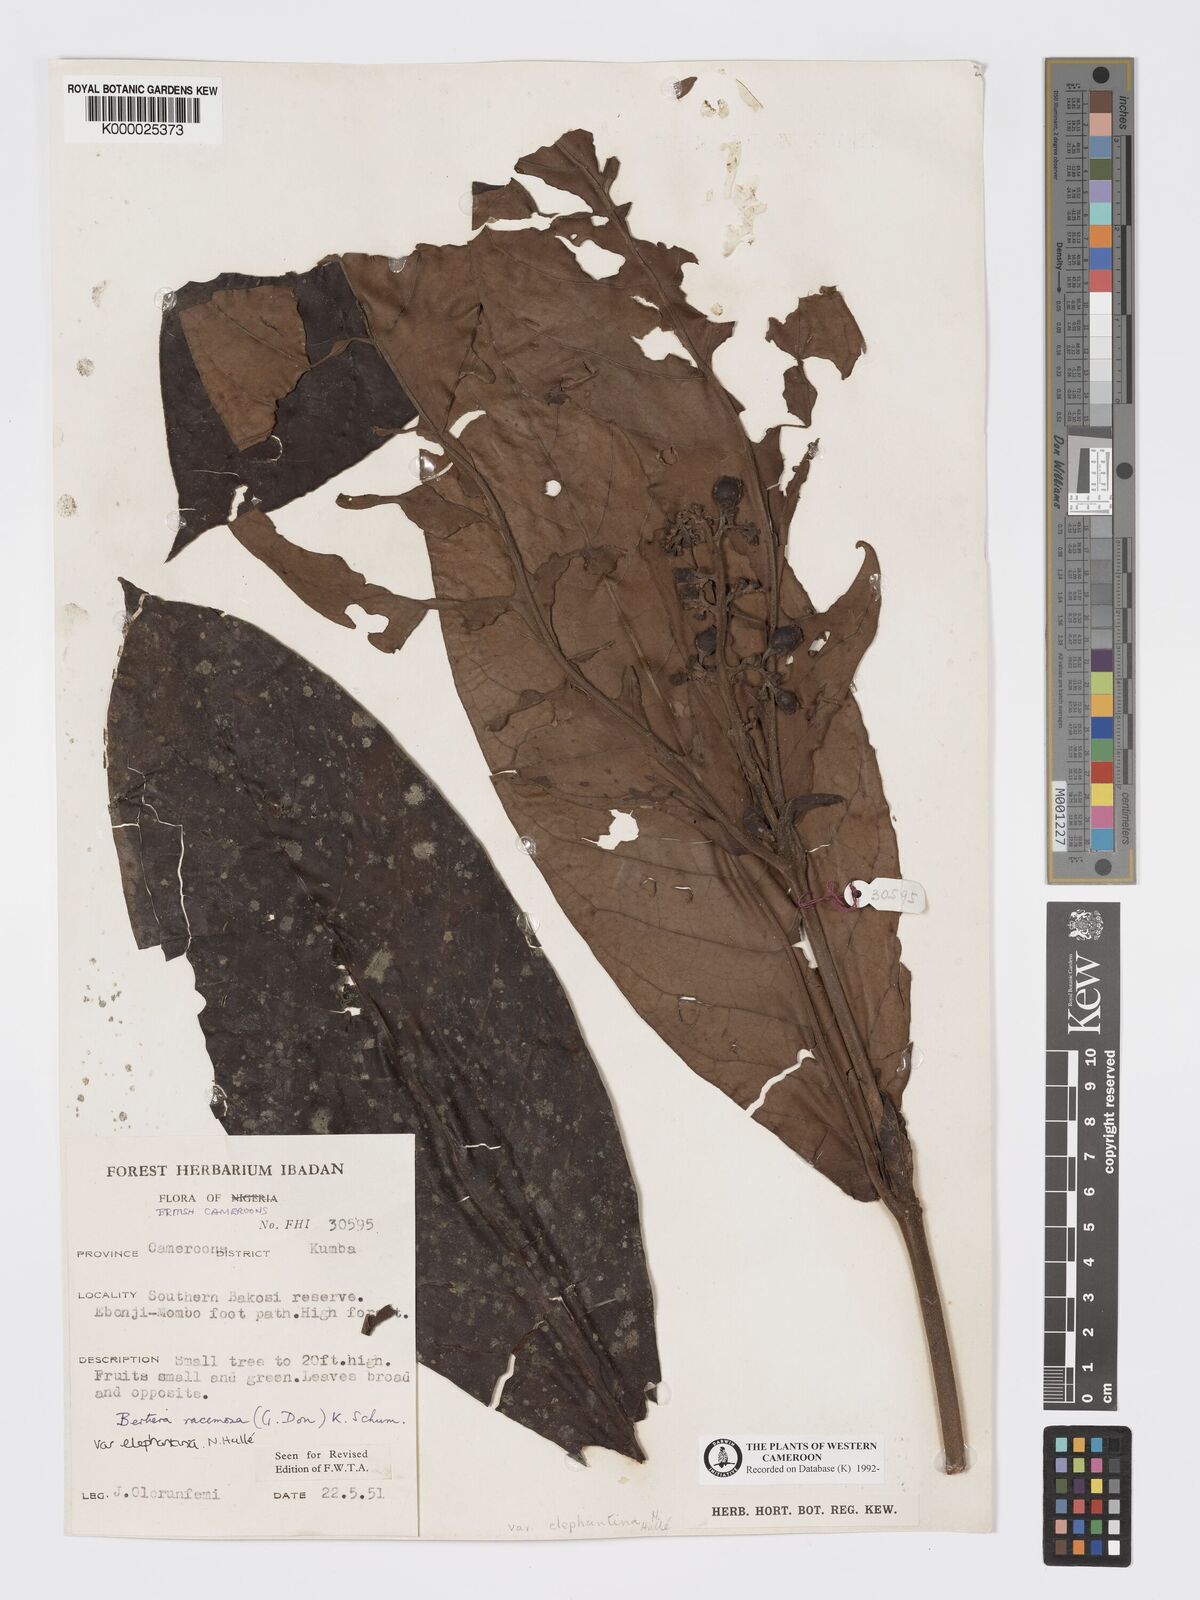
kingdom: Plantae
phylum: Tracheophyta
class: Magnoliopsida
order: Gentianales
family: Rubiaceae
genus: Bertiera
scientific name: Bertiera racemosa
